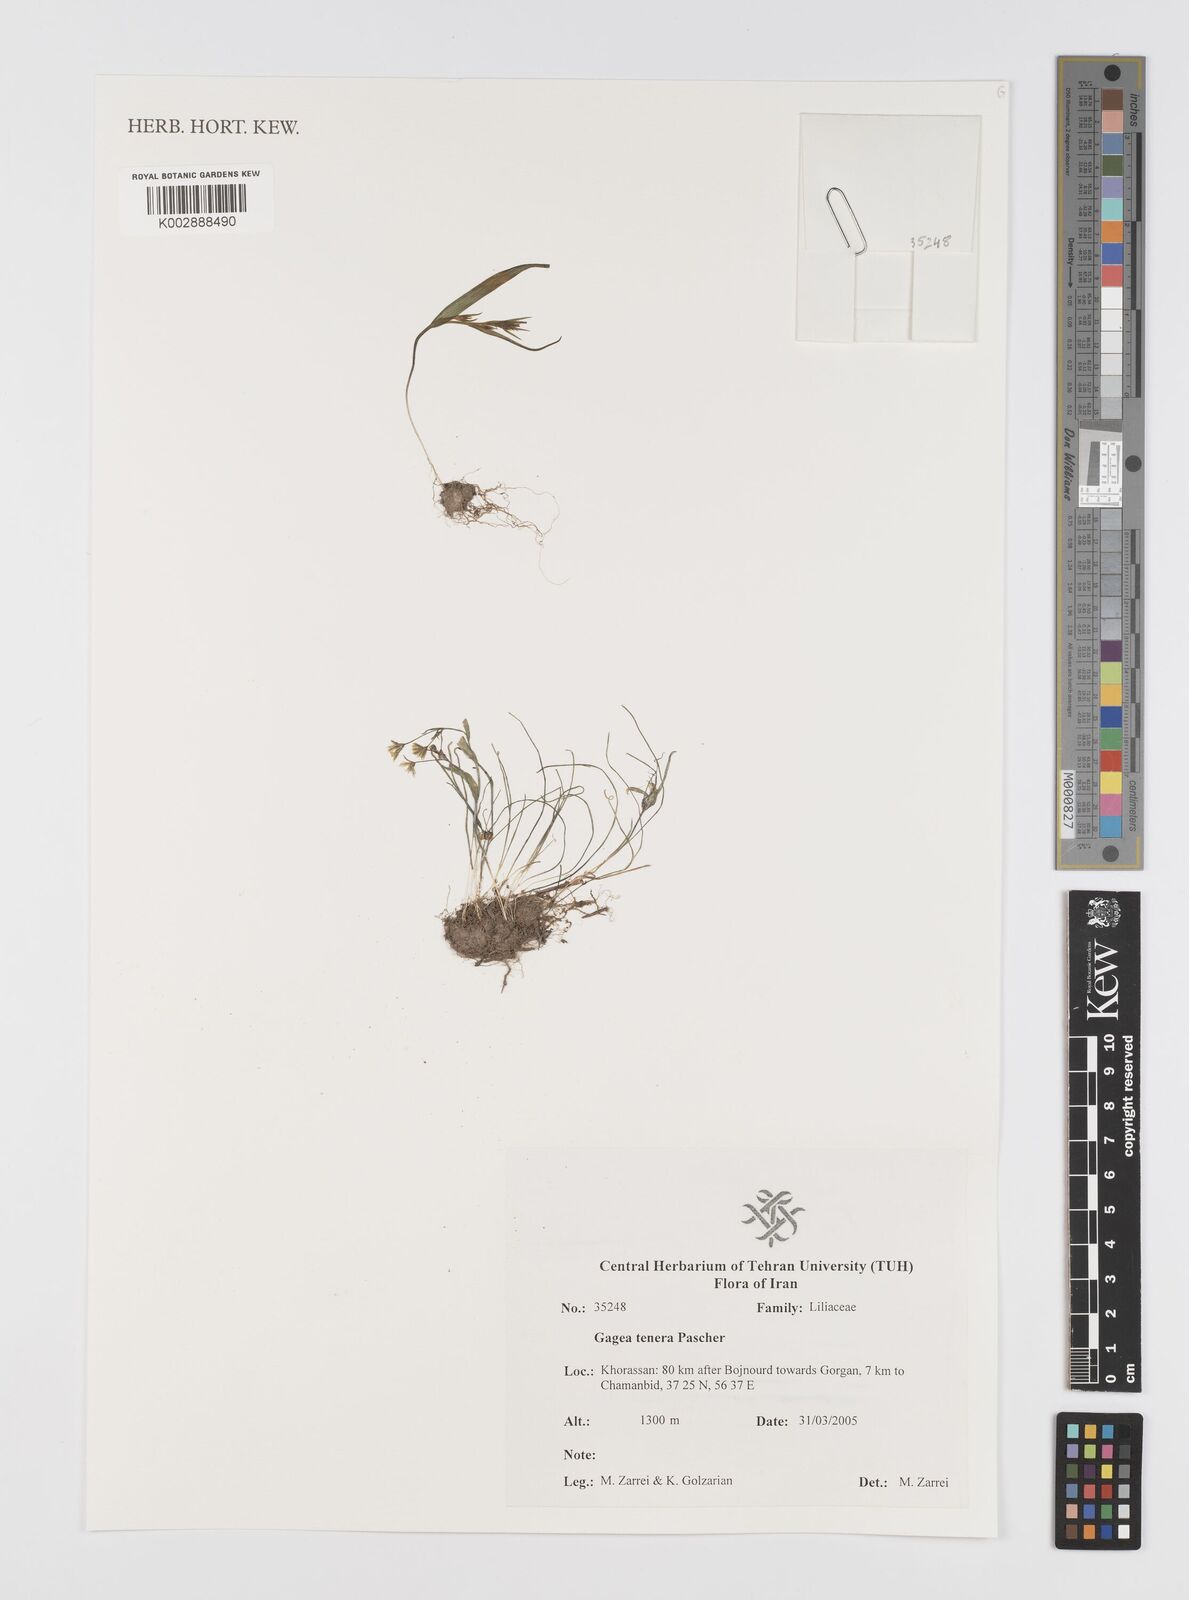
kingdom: Plantae
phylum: Tracheophyta
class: Liliopsida
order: Liliales
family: Liliaceae
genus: Gagea
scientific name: Gagea tenera
